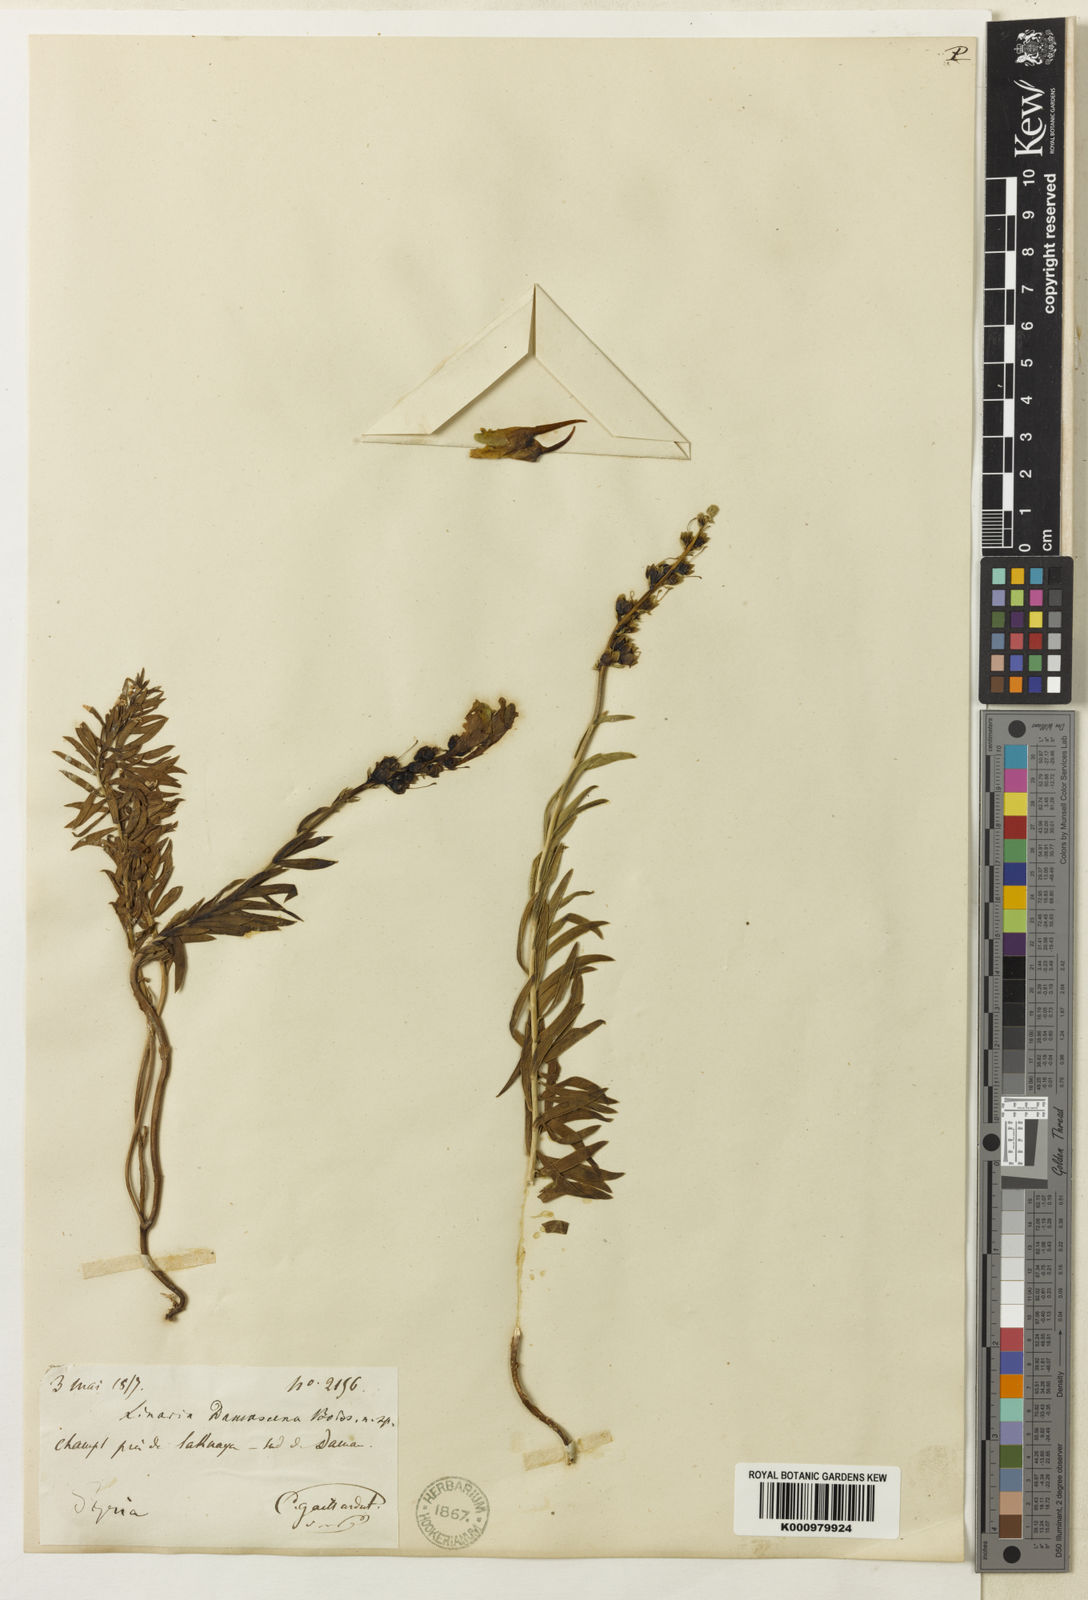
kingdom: Plantae
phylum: Tracheophyta
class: Magnoliopsida
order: Lamiales
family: Plantaginaceae
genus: Linaria
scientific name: Linaria damascena
